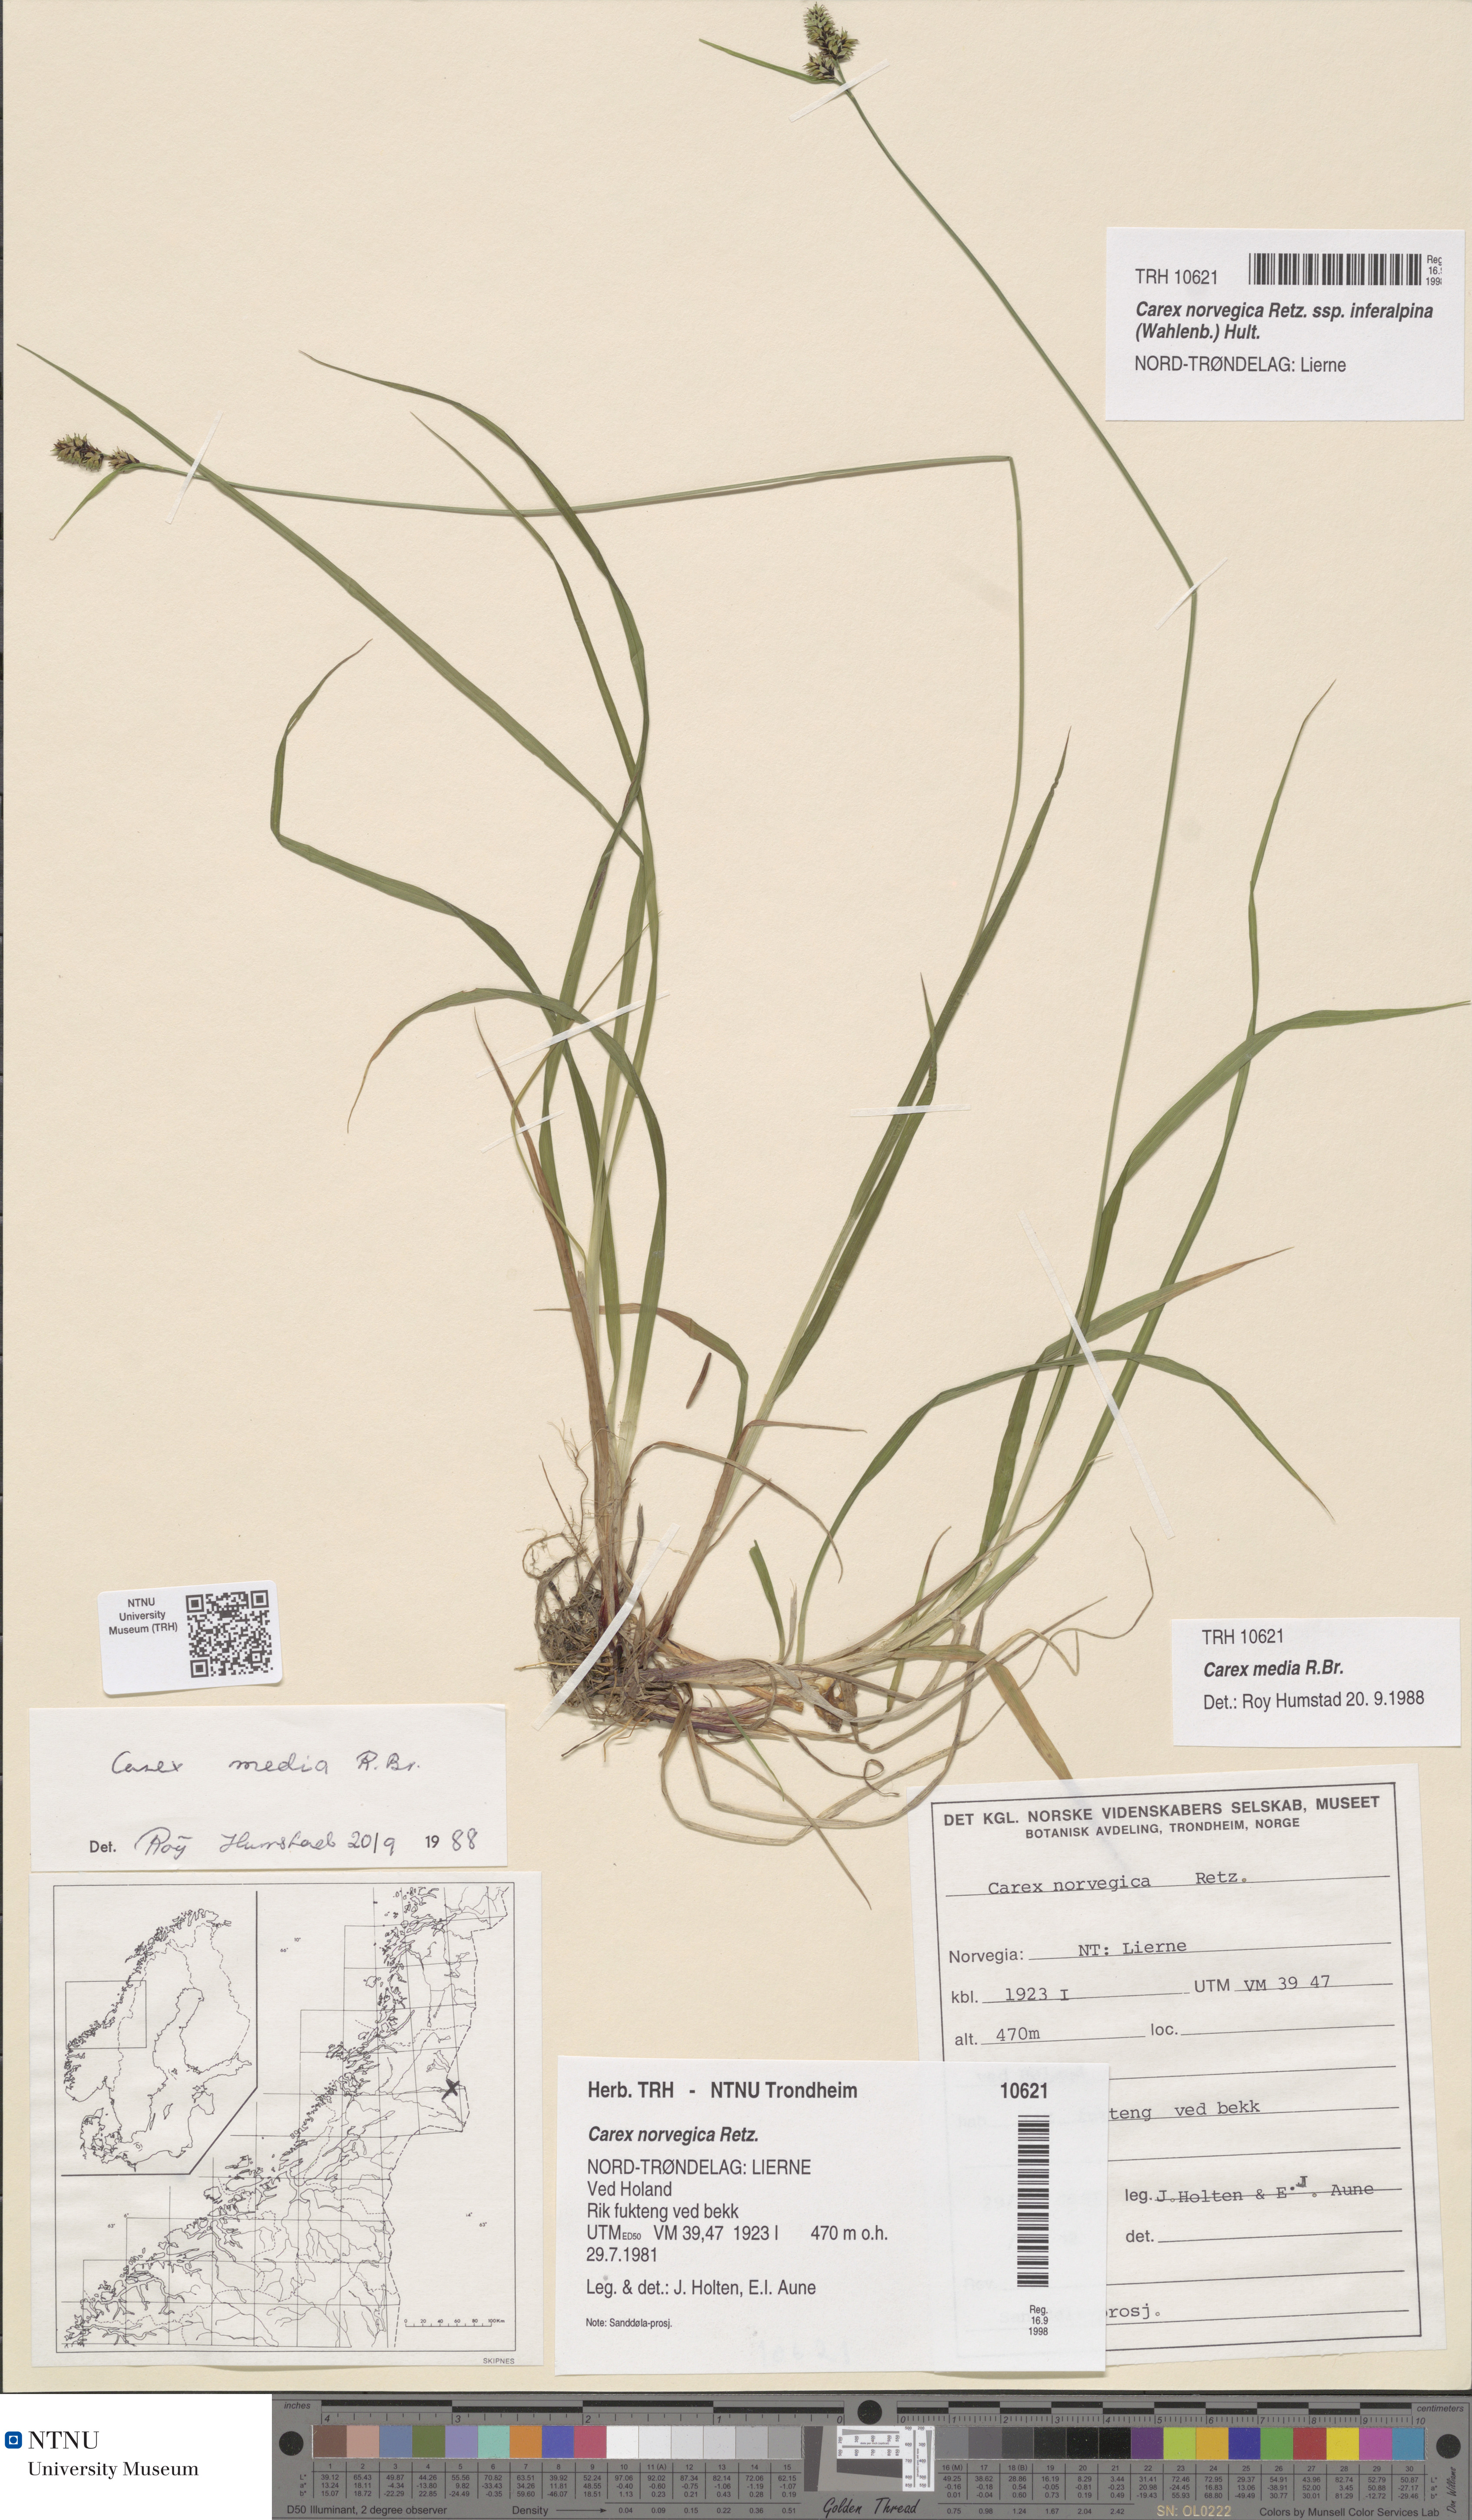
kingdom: Plantae
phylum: Tracheophyta
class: Liliopsida
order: Poales
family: Cyperaceae
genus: Carex
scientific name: Carex media
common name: Alpine sedge
